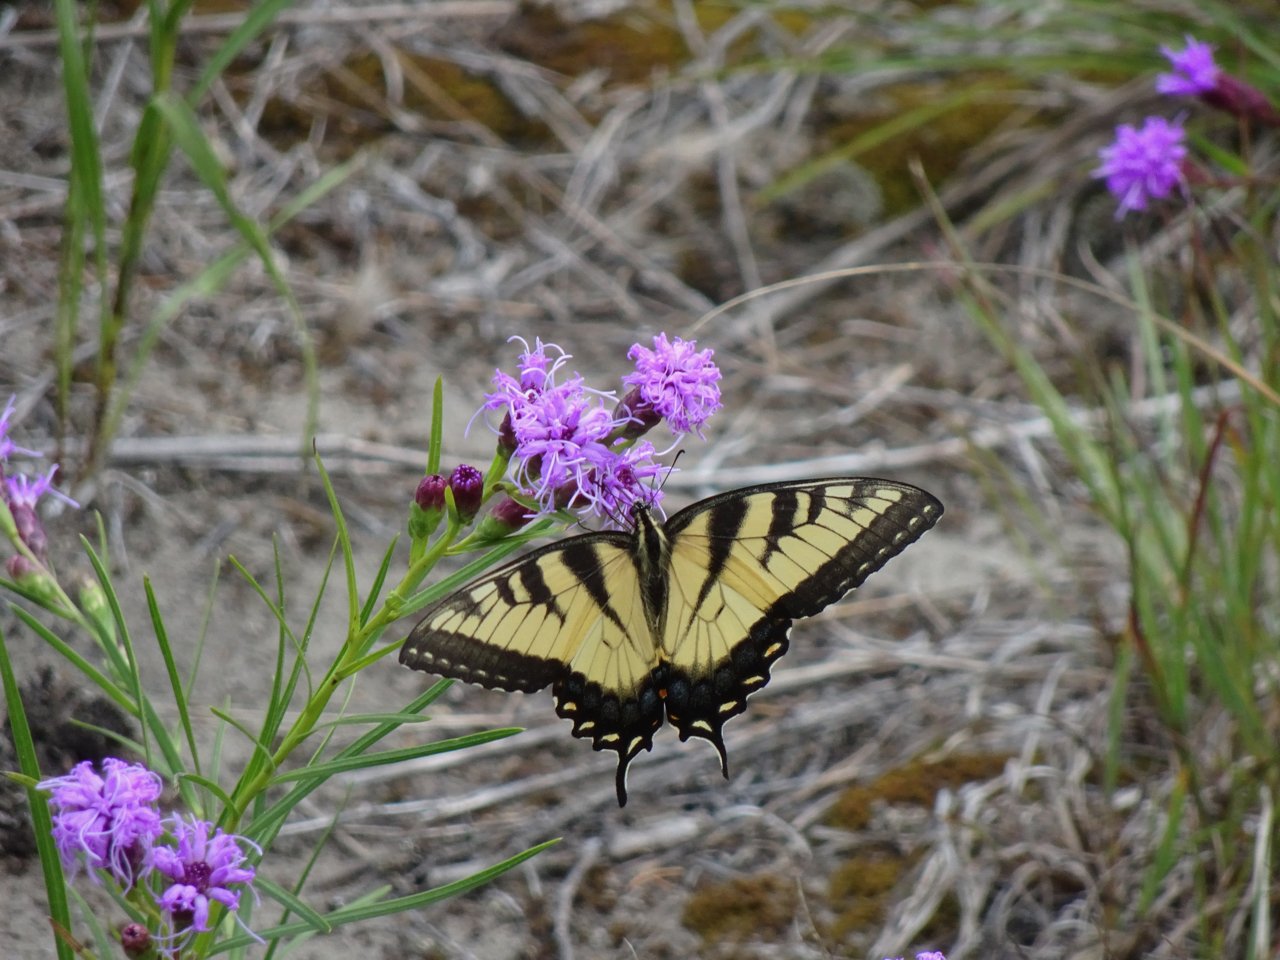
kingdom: Animalia
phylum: Arthropoda
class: Insecta
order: Lepidoptera
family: Papilionidae
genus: Pterourus
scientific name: Pterourus glaucus
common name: Eastern Tiger Swallowtail
